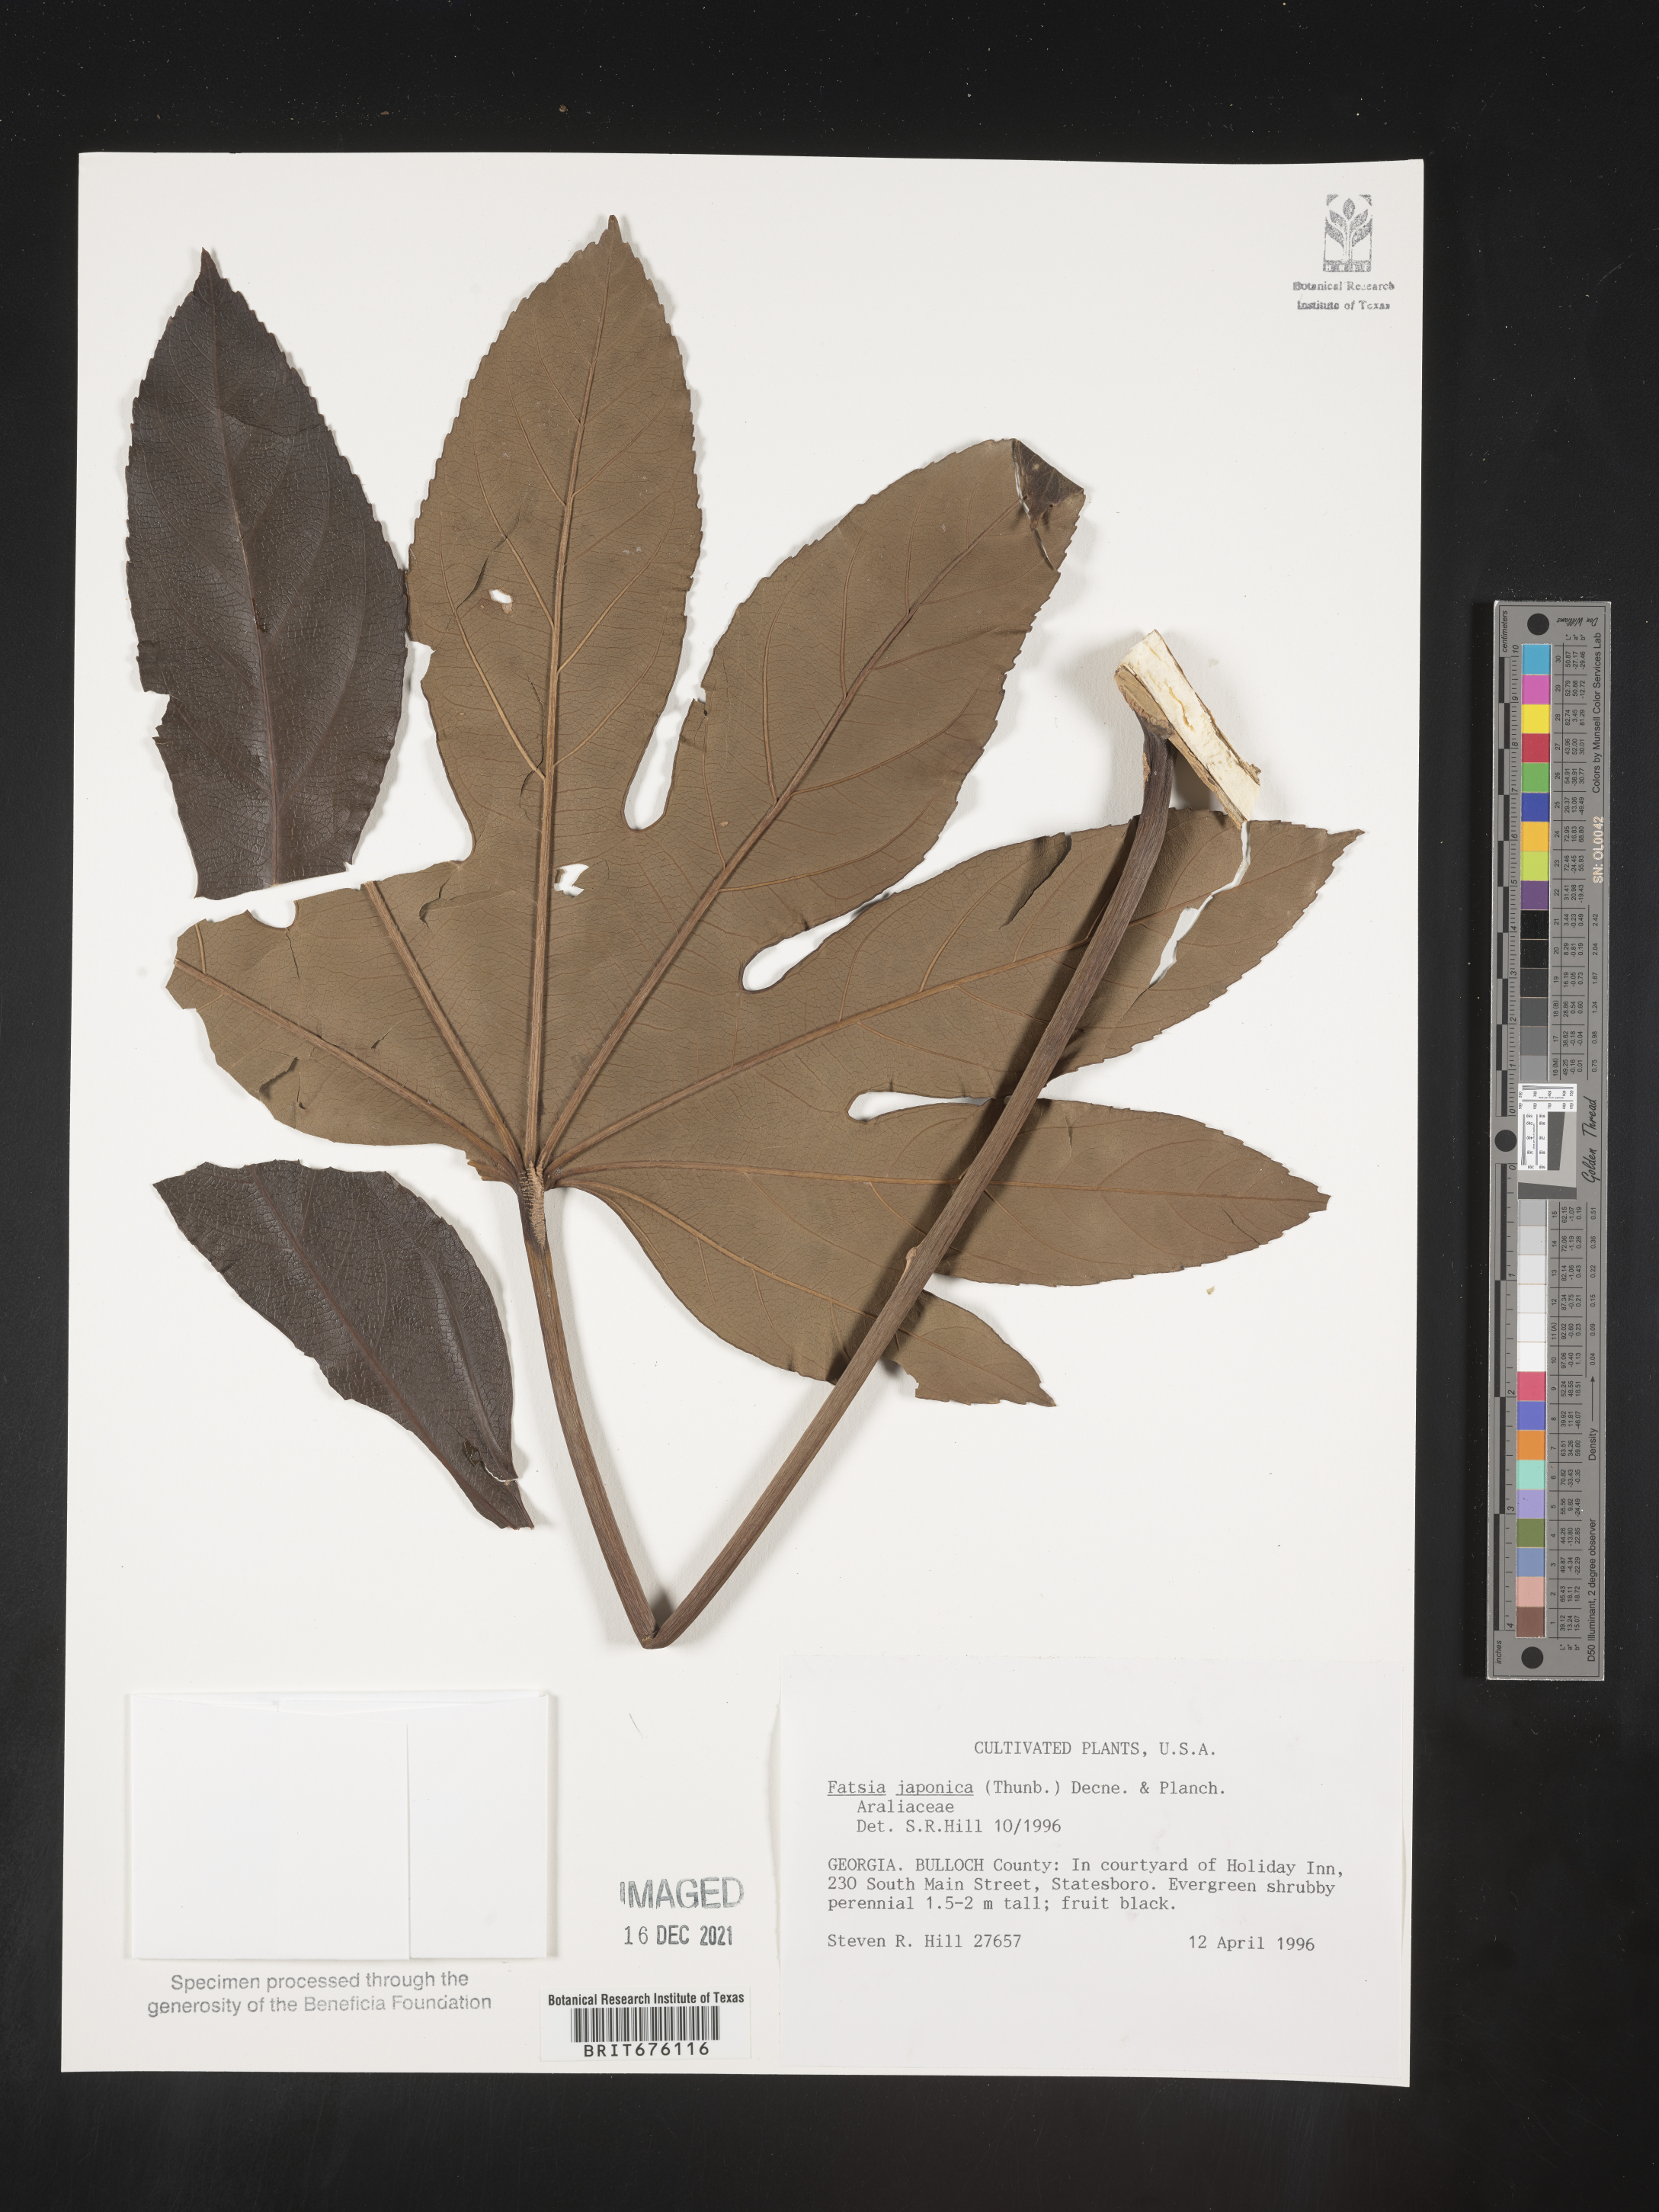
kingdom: Plantae
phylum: Tracheophyta
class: Magnoliopsida
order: Apiales
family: Araliaceae
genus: Fatsia
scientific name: Fatsia
